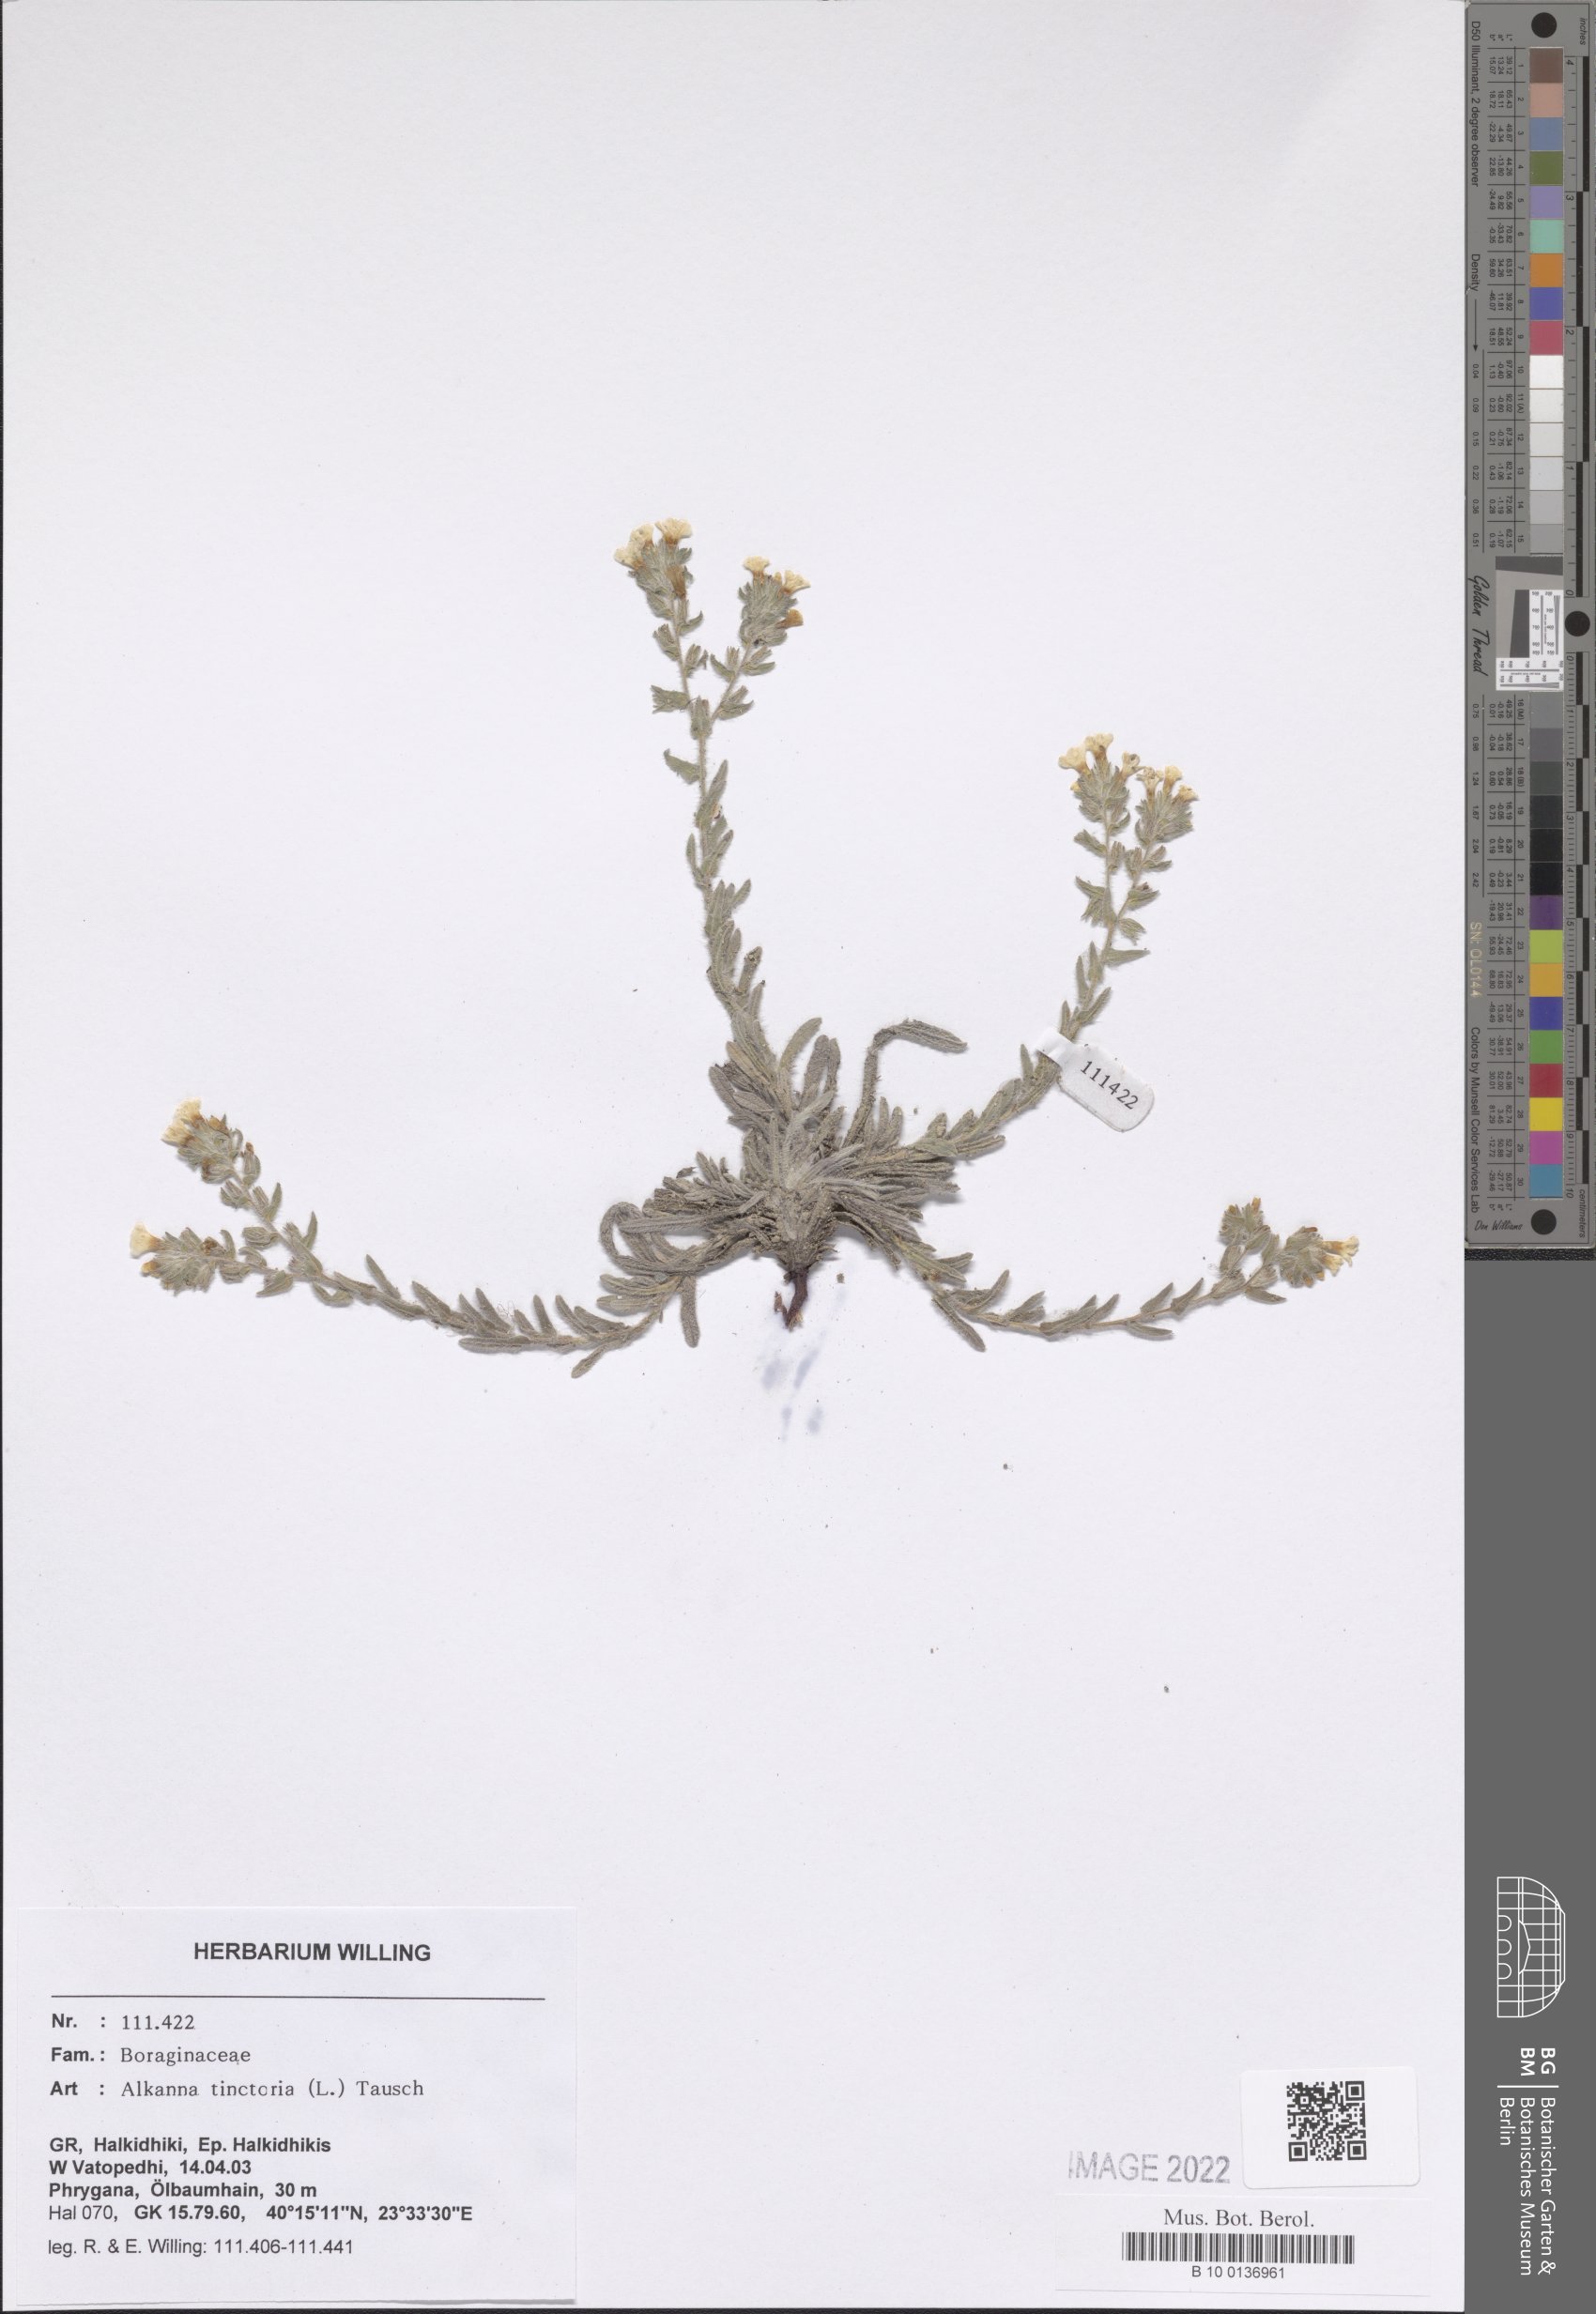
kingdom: Plantae
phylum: Tracheophyta
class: Magnoliopsida
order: Boraginales
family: Boraginaceae
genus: Alkanna
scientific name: Alkanna tinctoria
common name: Dyer's-alkanet
